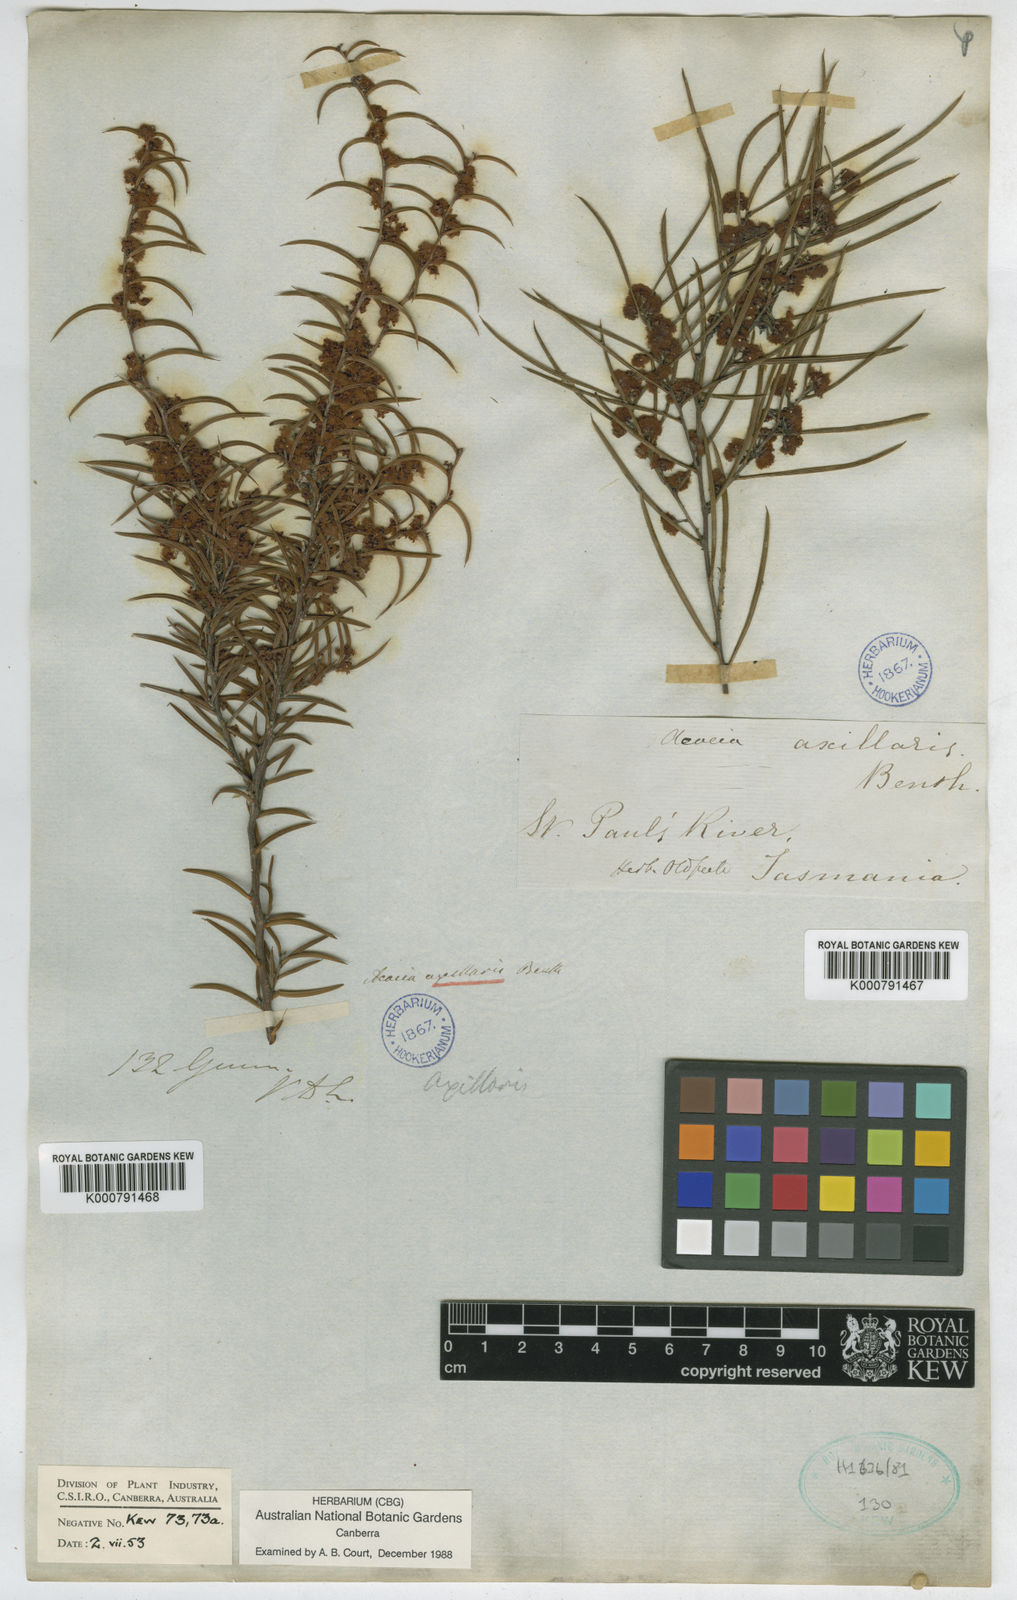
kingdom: Plantae
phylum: Tracheophyta
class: Magnoliopsida
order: Fabales
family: Fabaceae
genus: Acacia
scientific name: Acacia axillaris
